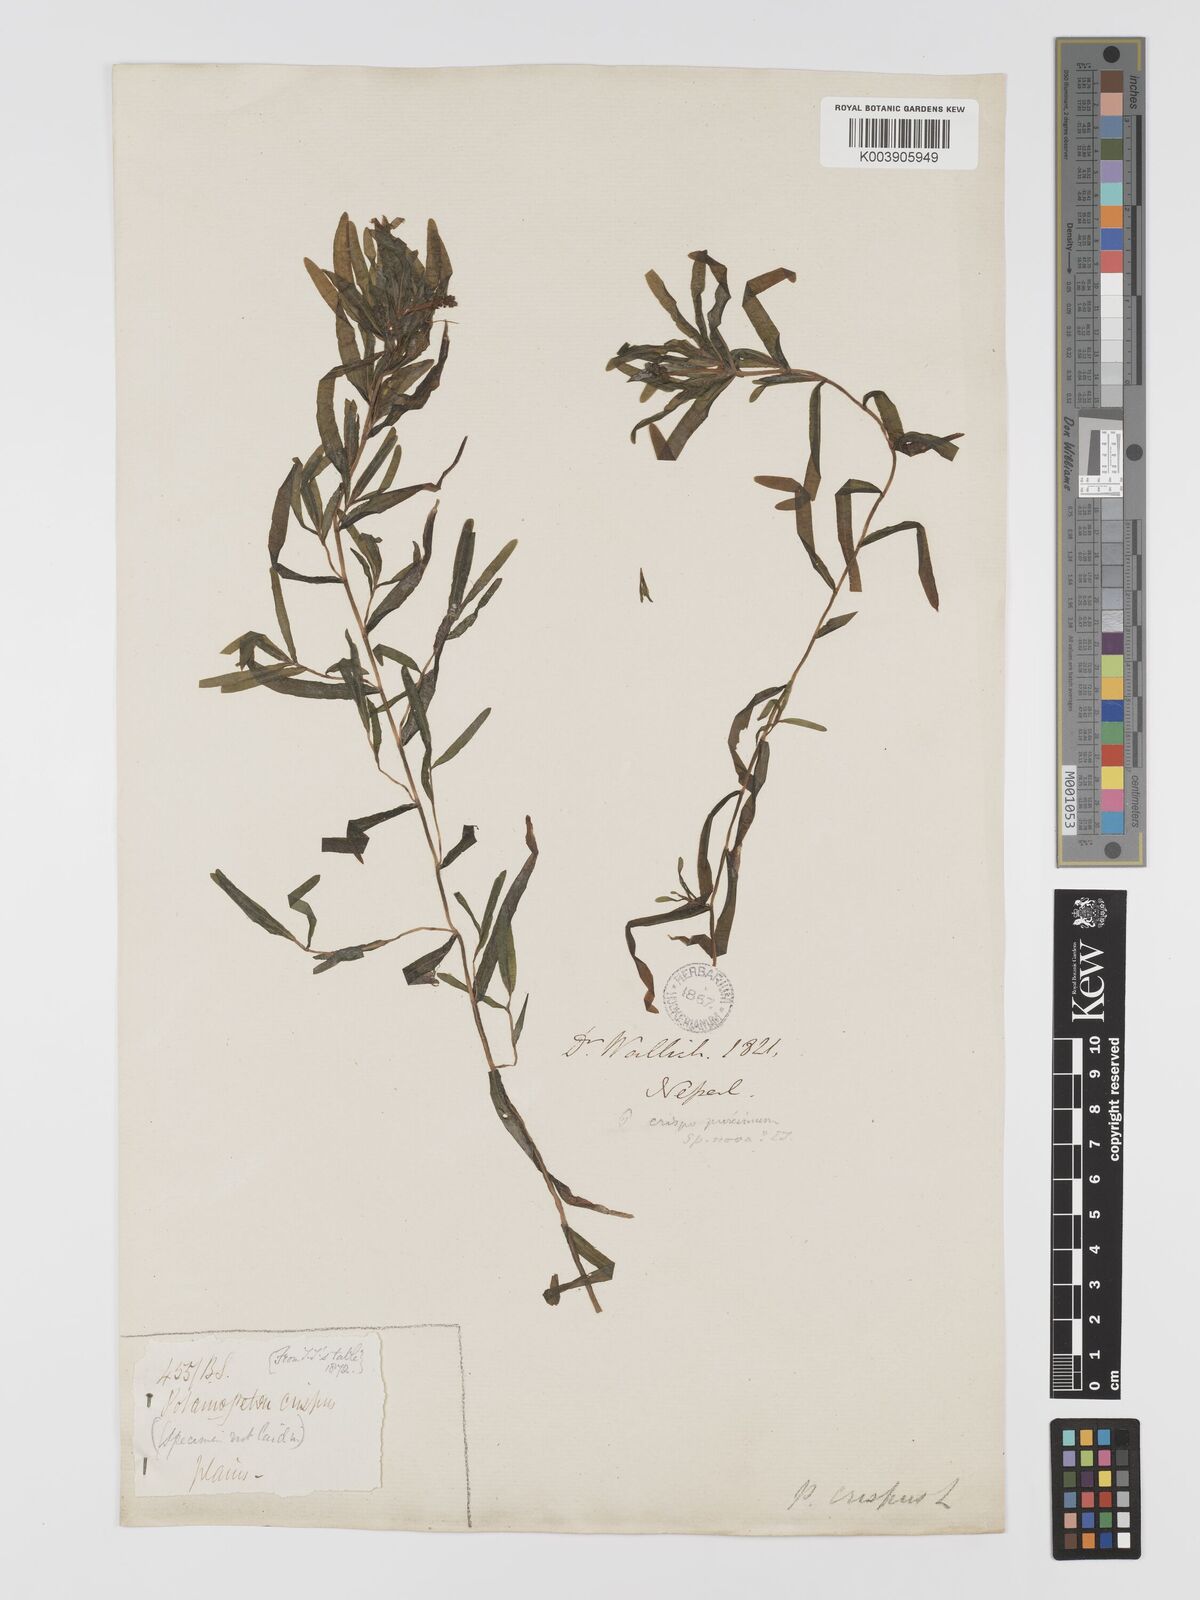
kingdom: Plantae
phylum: Tracheophyta
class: Liliopsida
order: Alismatales
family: Potamogetonaceae
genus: Potamogeton
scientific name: Potamogeton crispus
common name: Curled pondweed
